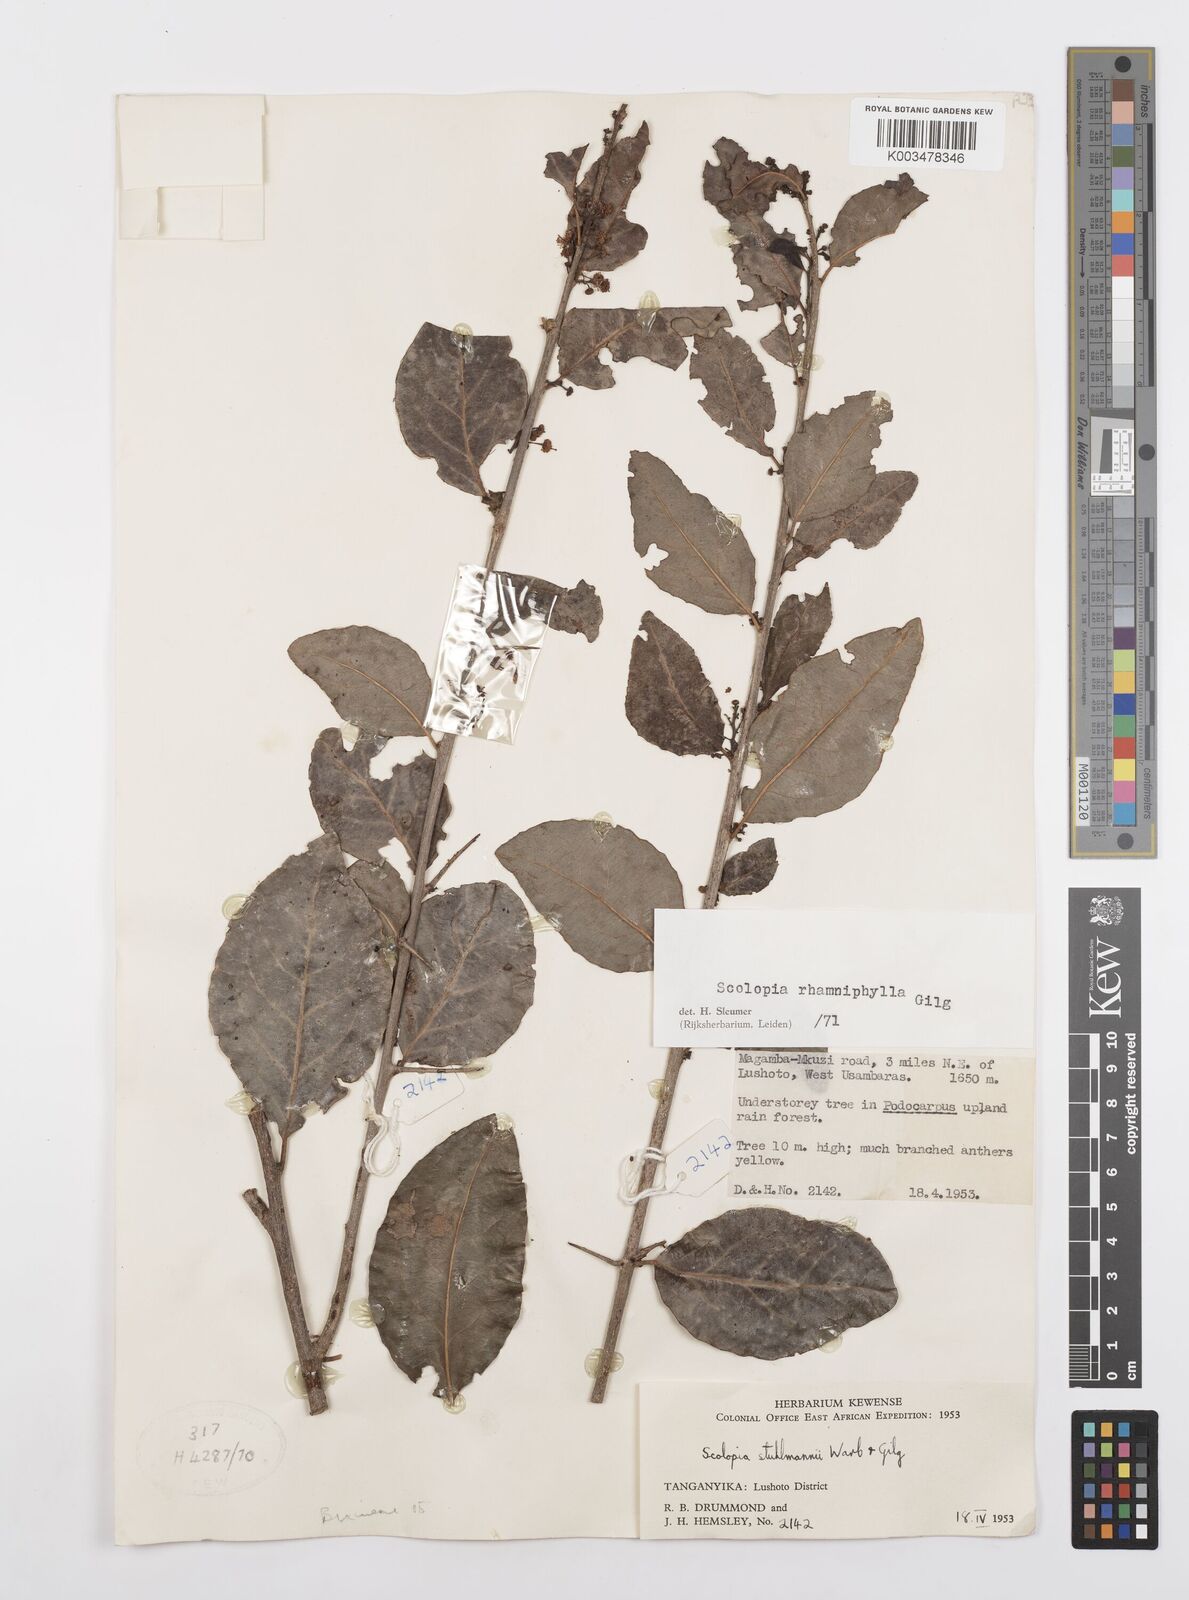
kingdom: Plantae
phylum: Tracheophyta
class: Magnoliopsida
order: Malpighiales
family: Salicaceae
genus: Scolopia
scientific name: Scolopia rhamniphylla
